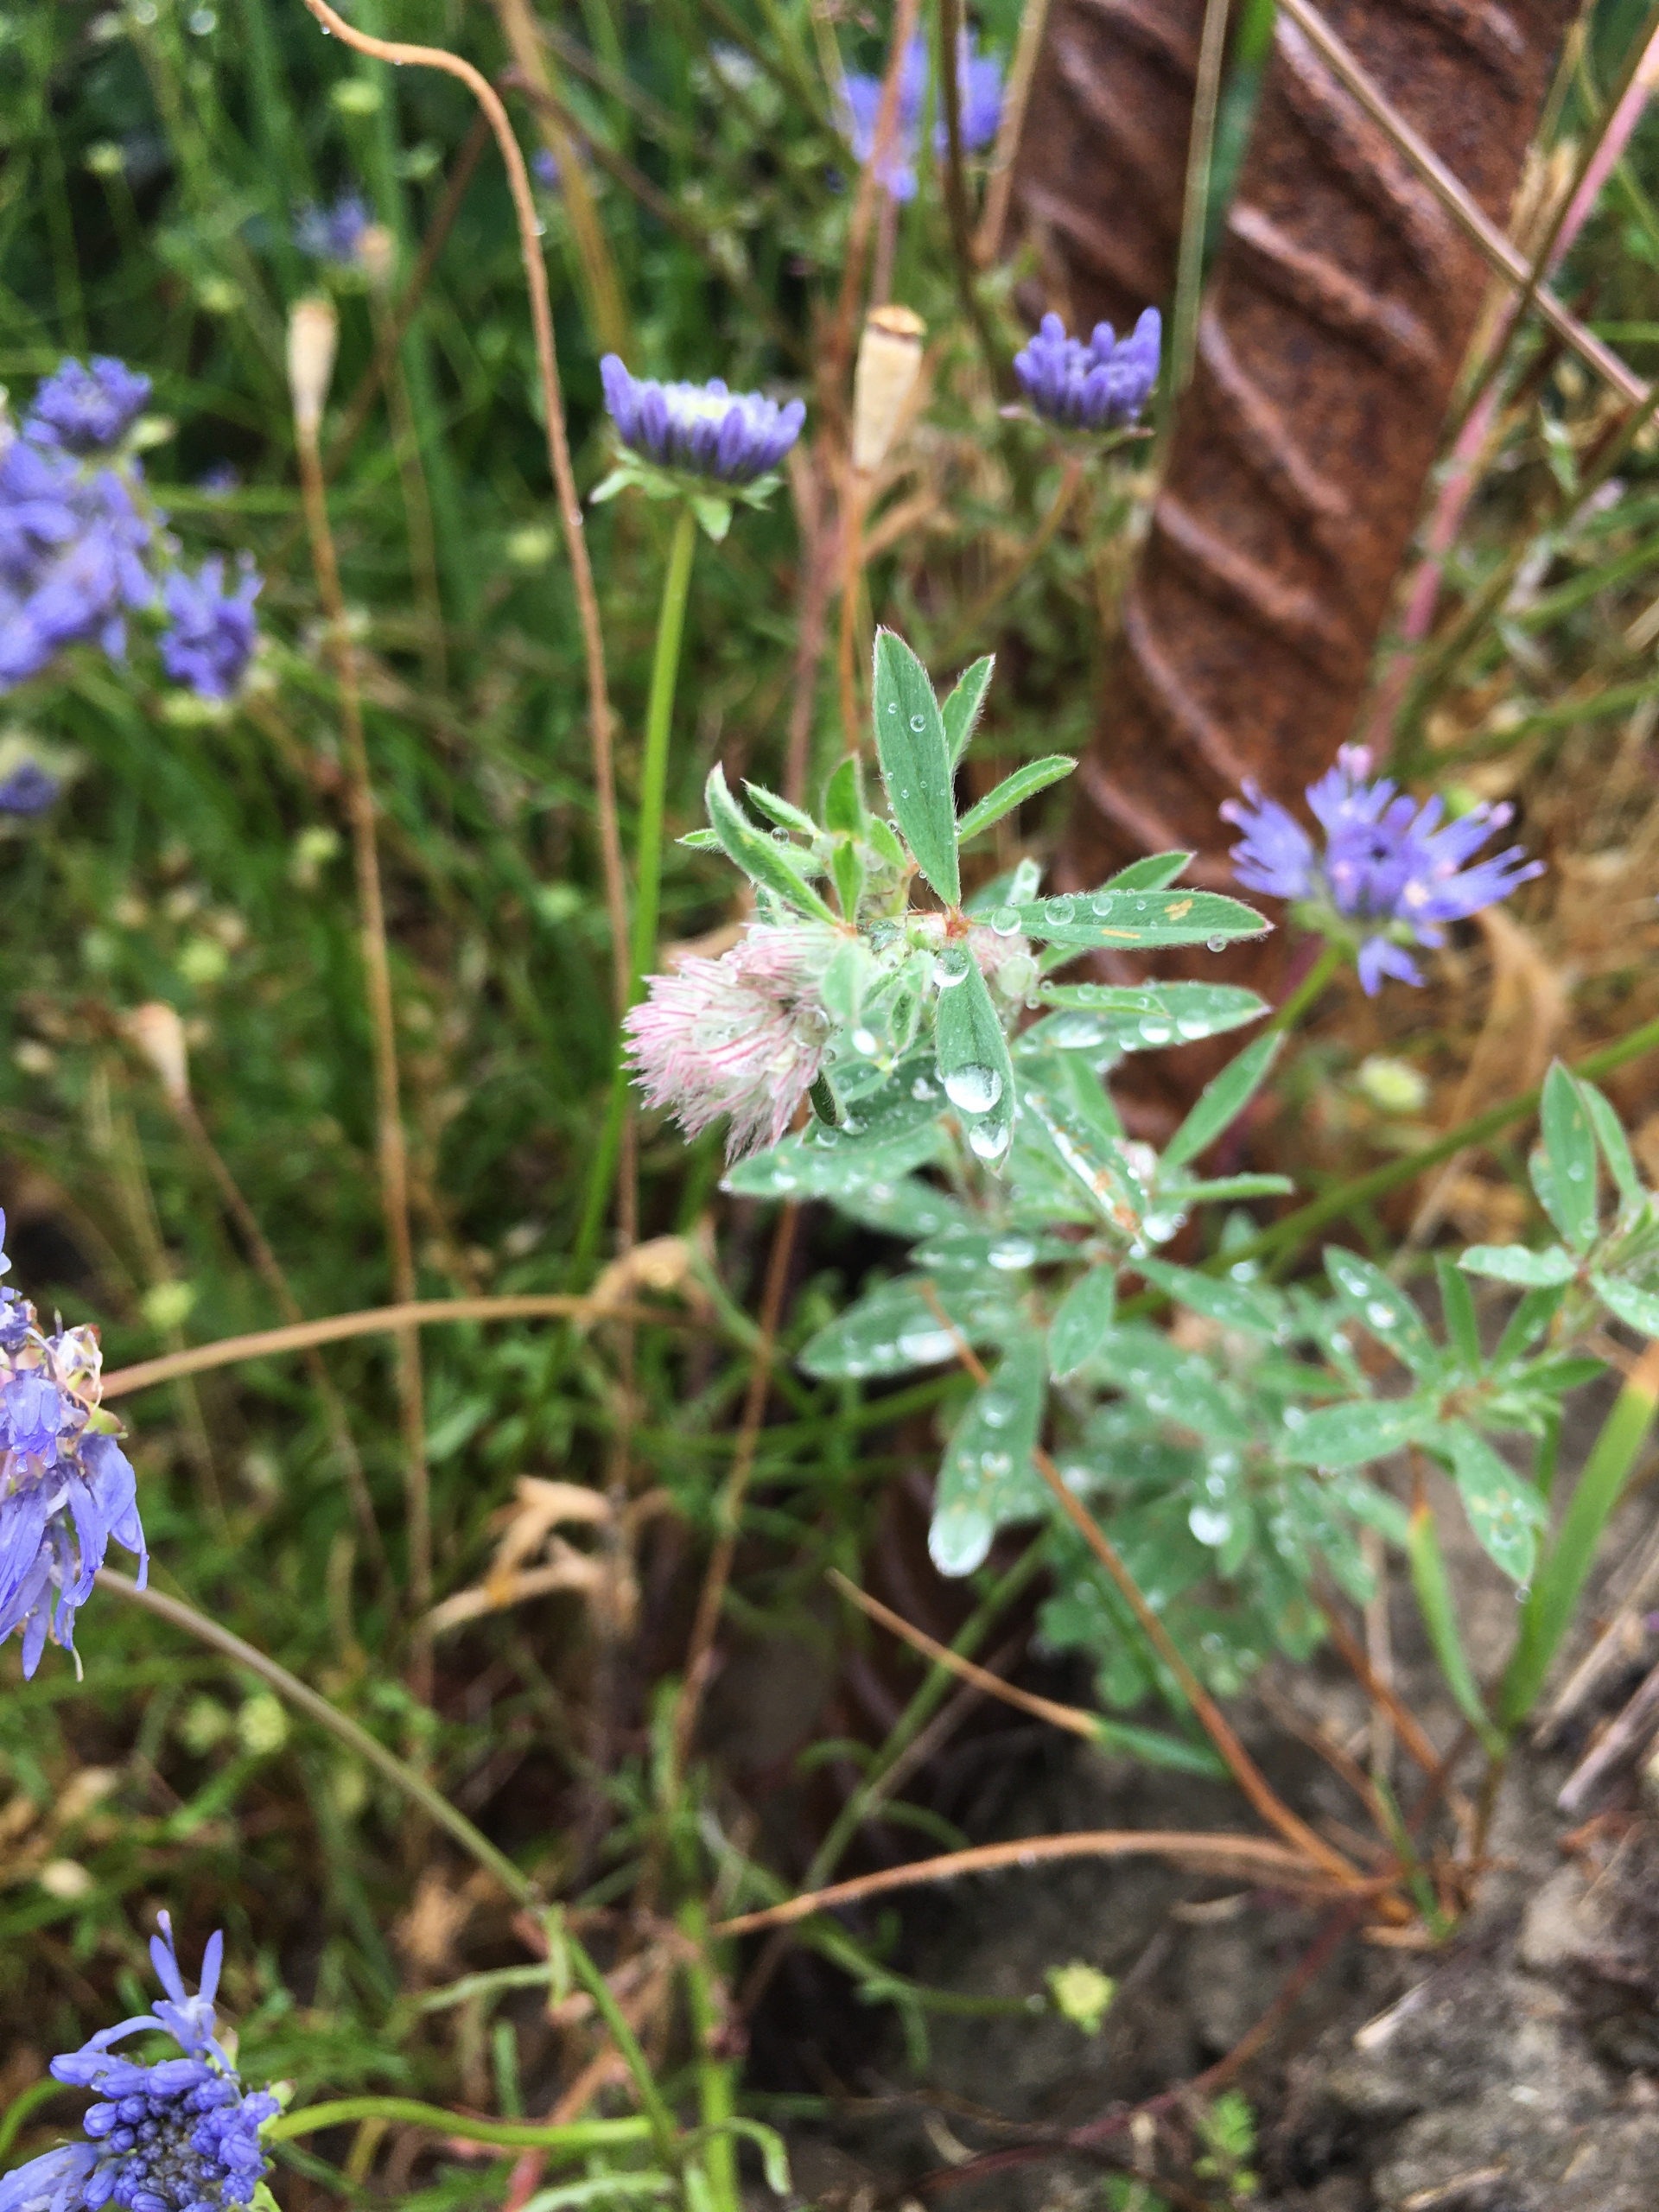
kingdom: Plantae
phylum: Tracheophyta
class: Magnoliopsida
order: Fabales
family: Fabaceae
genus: Trifolium
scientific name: Trifolium arvense
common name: Hare-kløver
